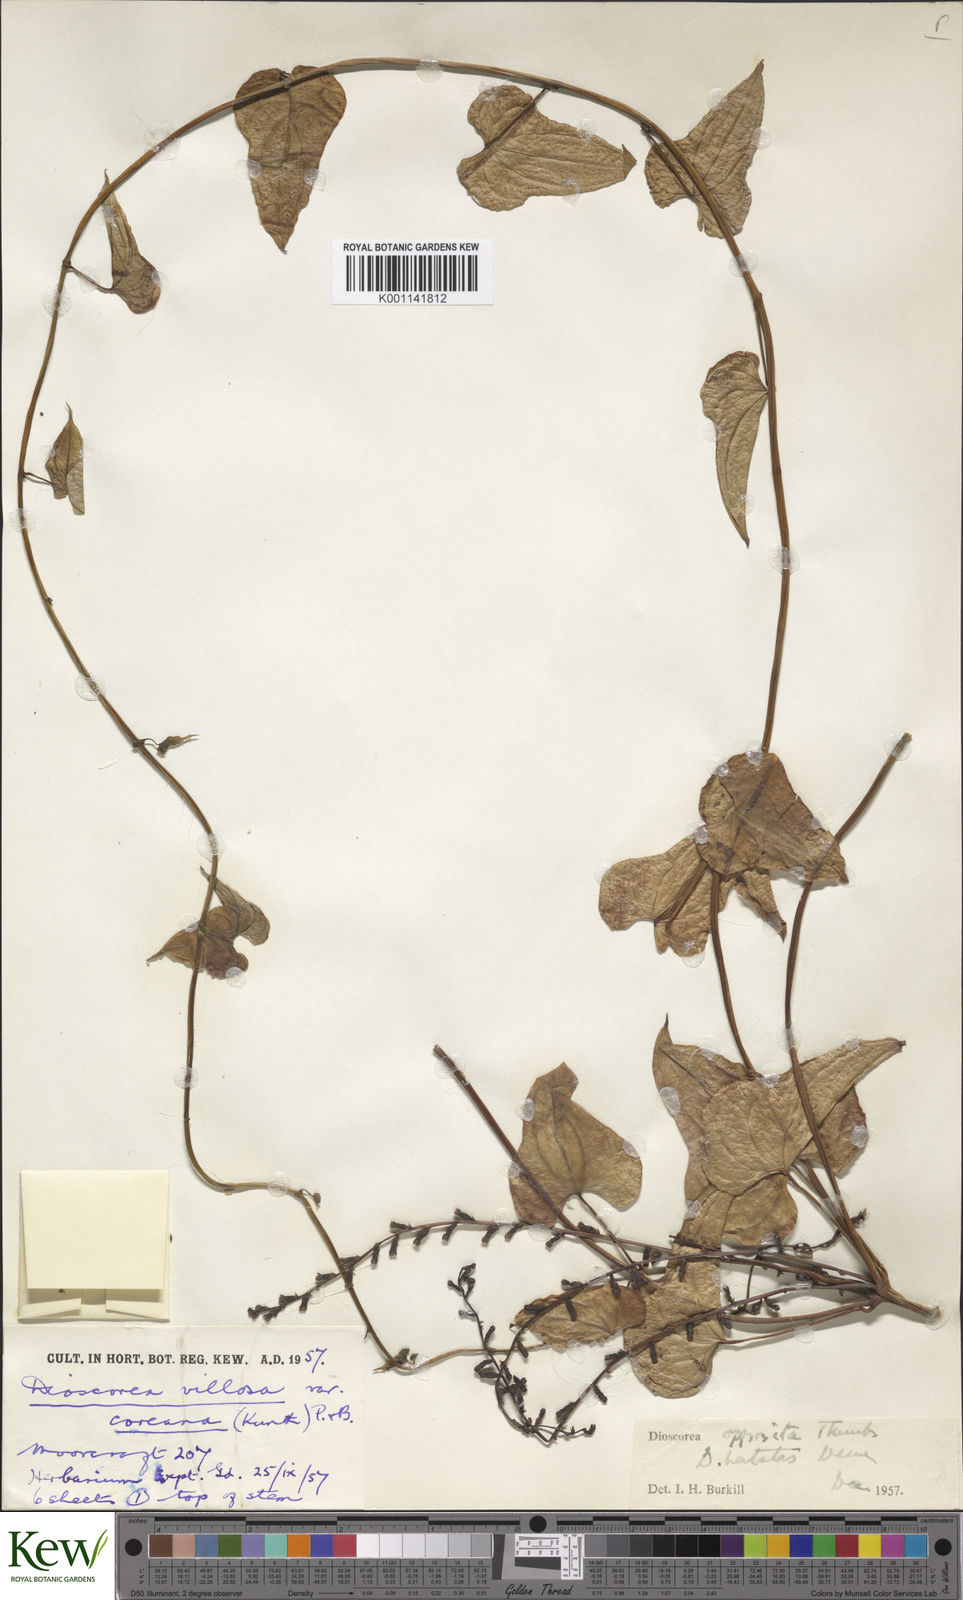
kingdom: Plantae
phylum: Tracheophyta
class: Liliopsida
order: Dioscoreales
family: Dioscoreaceae
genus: Dioscorea
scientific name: Dioscorea oppositifolia
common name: Chinese yam
